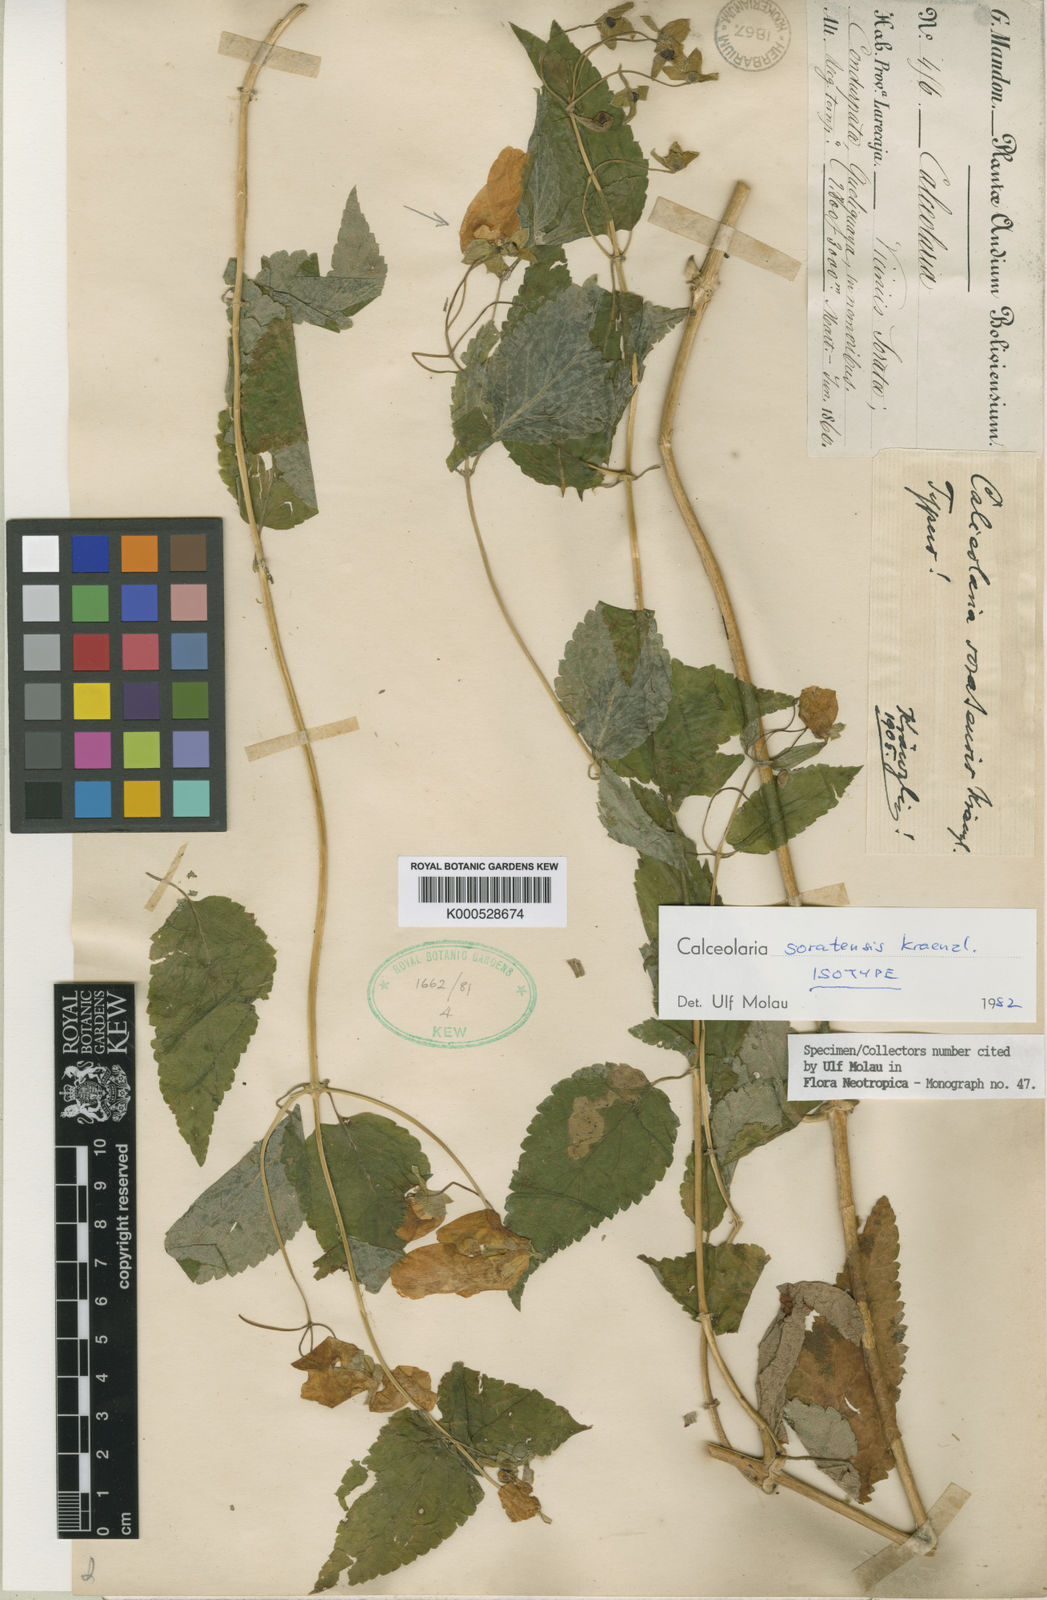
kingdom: Plantae
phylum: Tracheophyta
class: Magnoliopsida
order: Lamiales
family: Calceolariaceae
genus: Calceolaria
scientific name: Calceolaria soratensis
